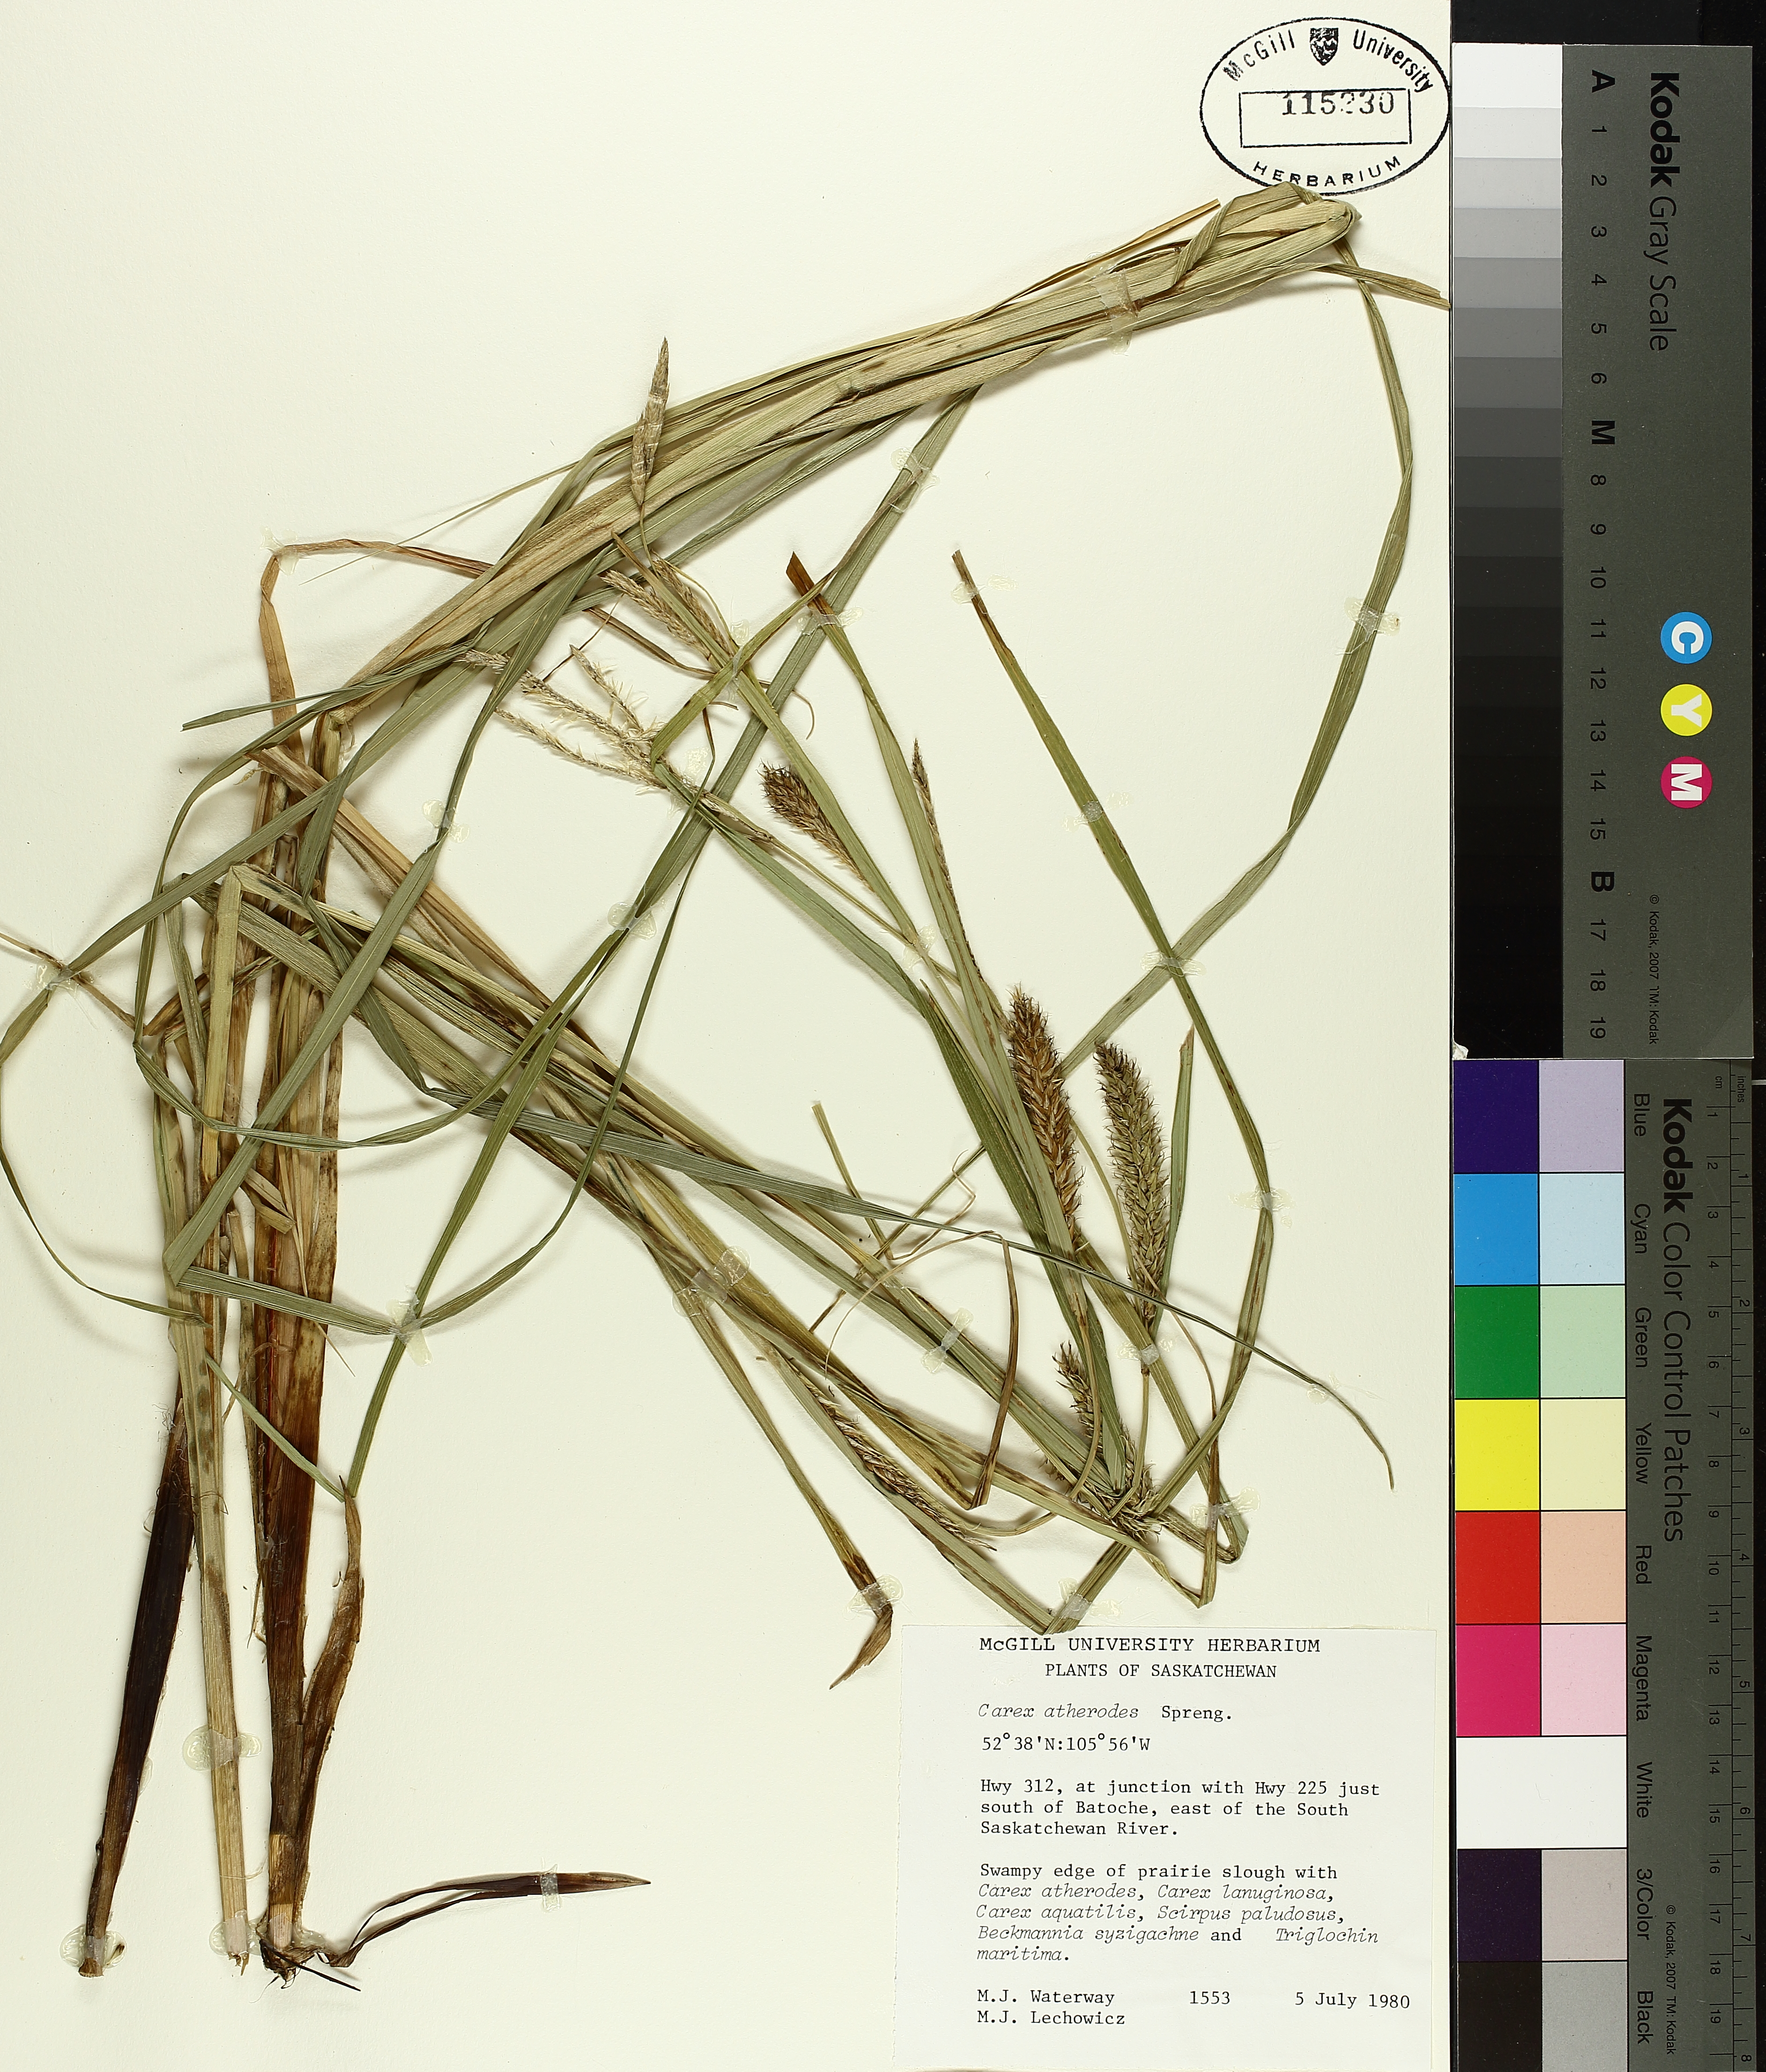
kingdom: Plantae
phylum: Tracheophyta
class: Liliopsida
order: Poales
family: Cyperaceae
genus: Carex
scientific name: Carex atherodes
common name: Wheat sedge
